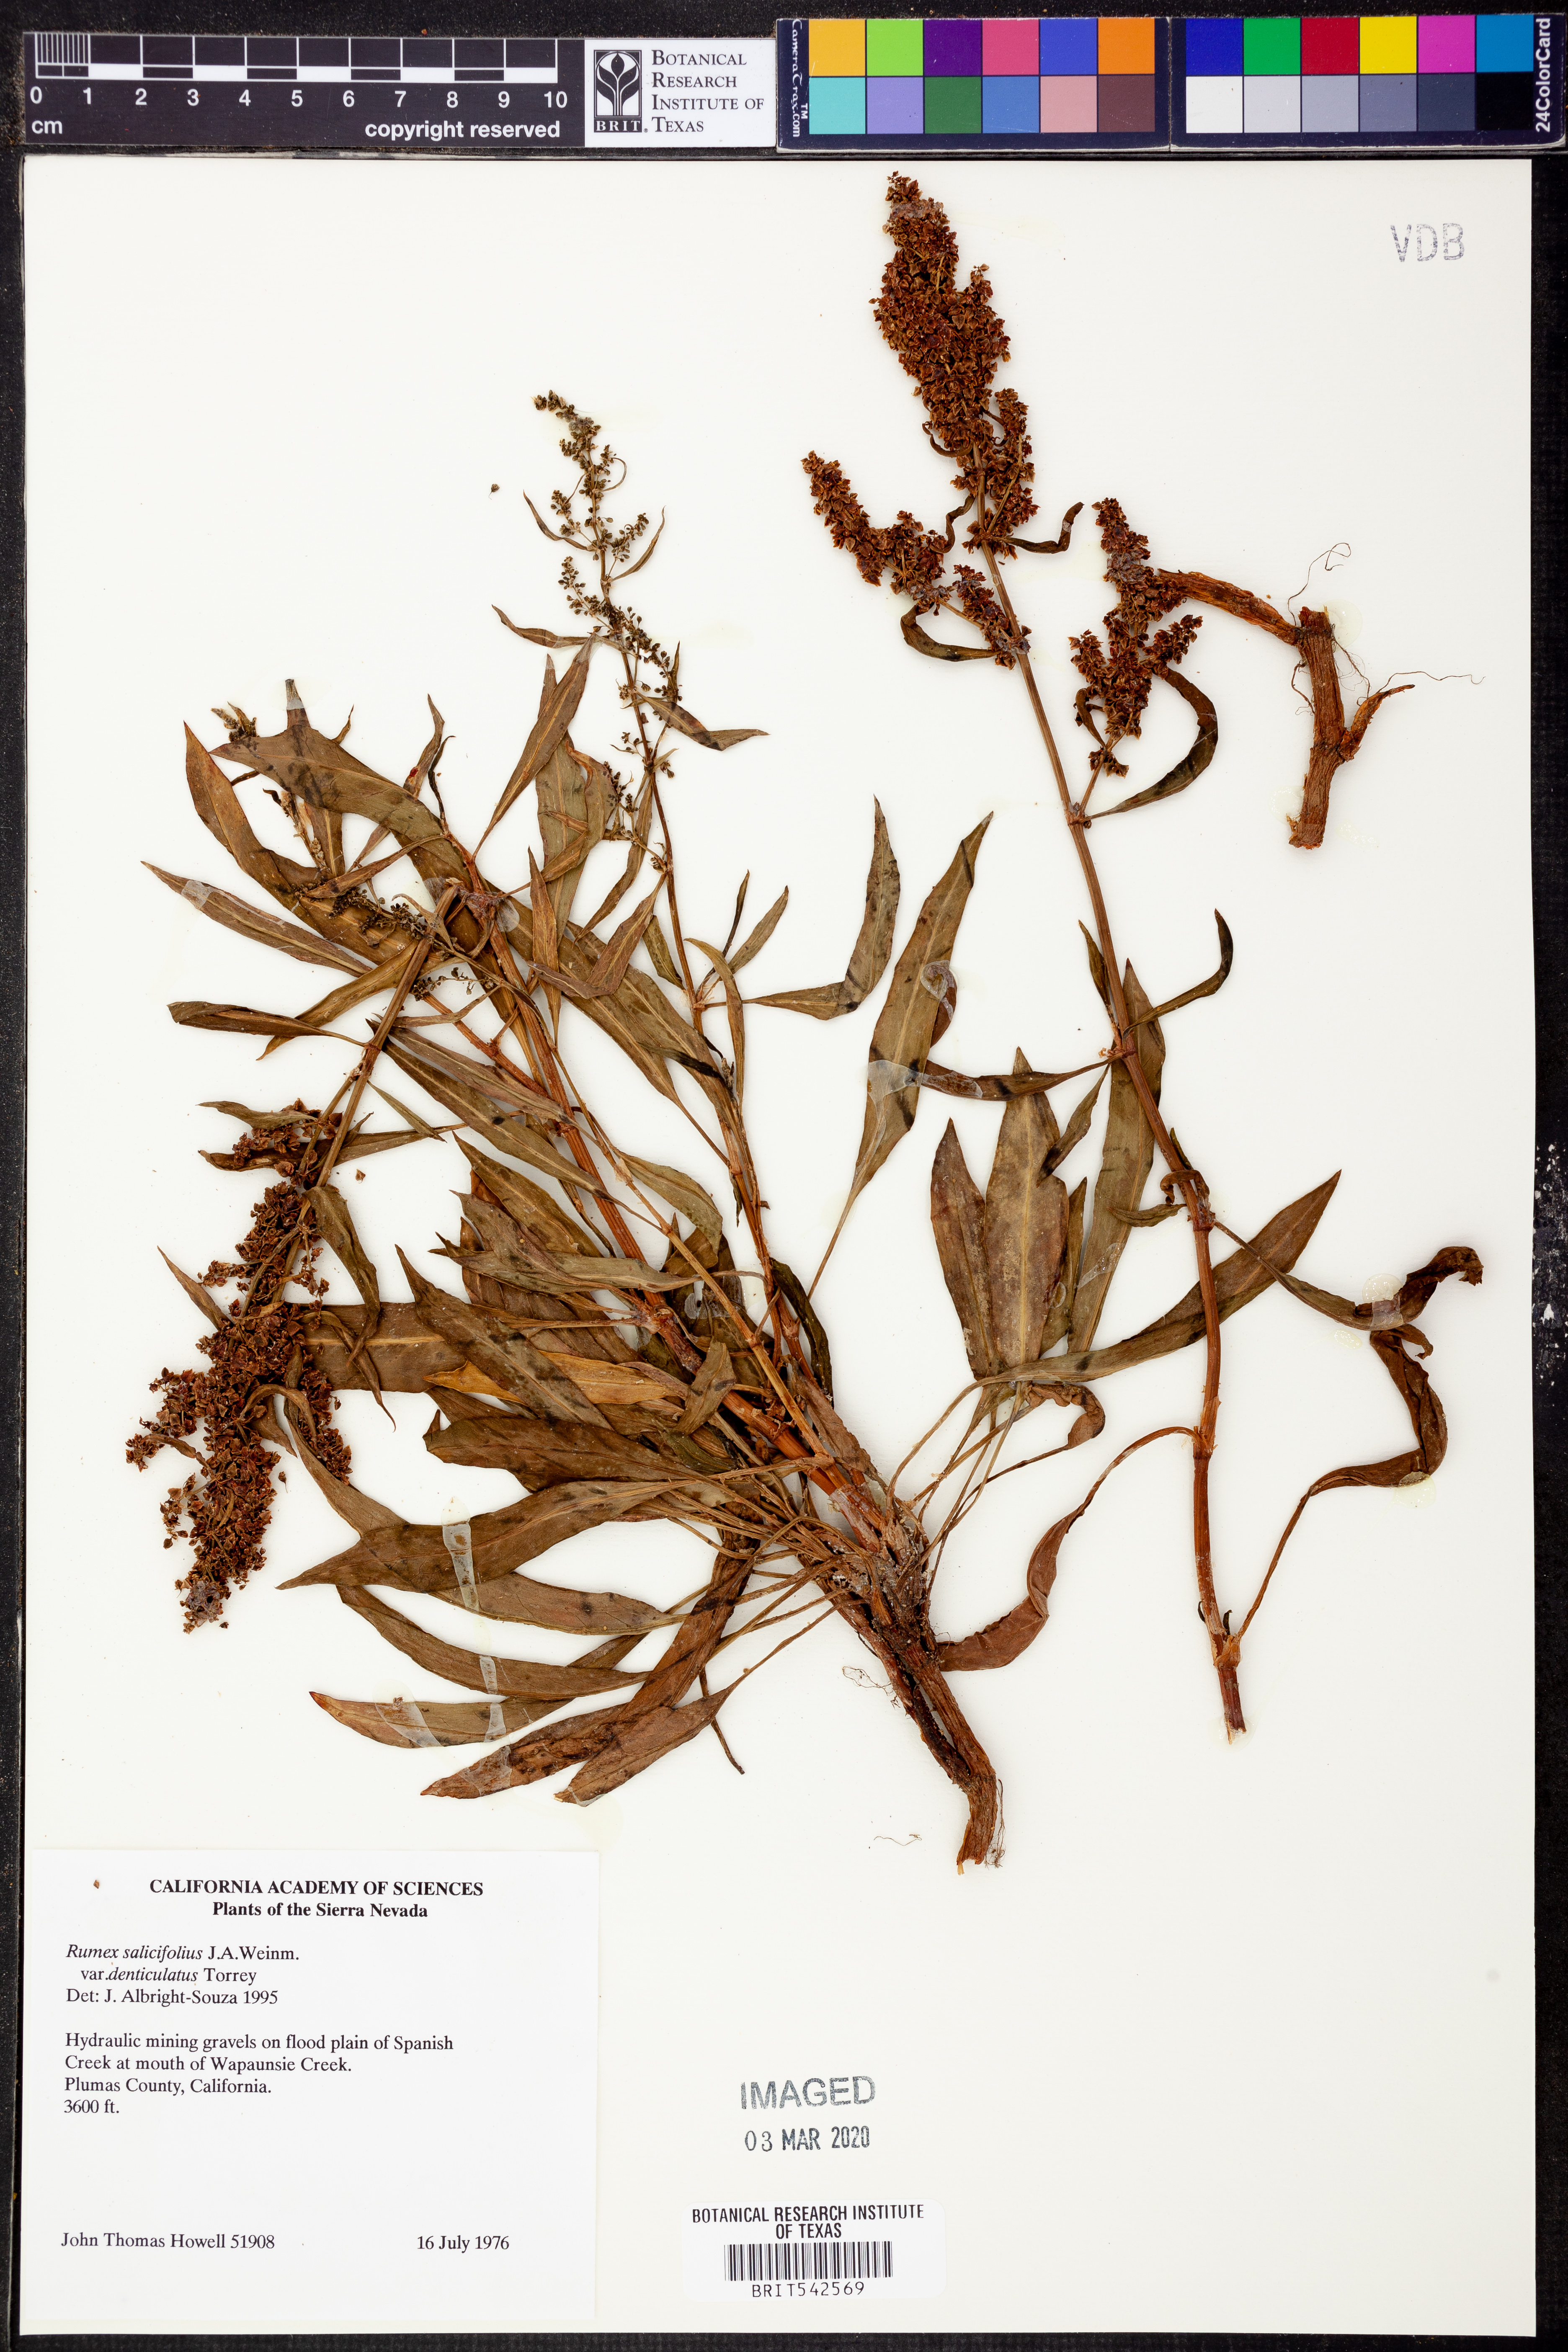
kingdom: Plantae
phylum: Tracheophyta
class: Magnoliopsida
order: Caryophyllales
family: Polygonaceae
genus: Rumex
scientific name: Rumex salicifolius
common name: Willow-leaved dock
